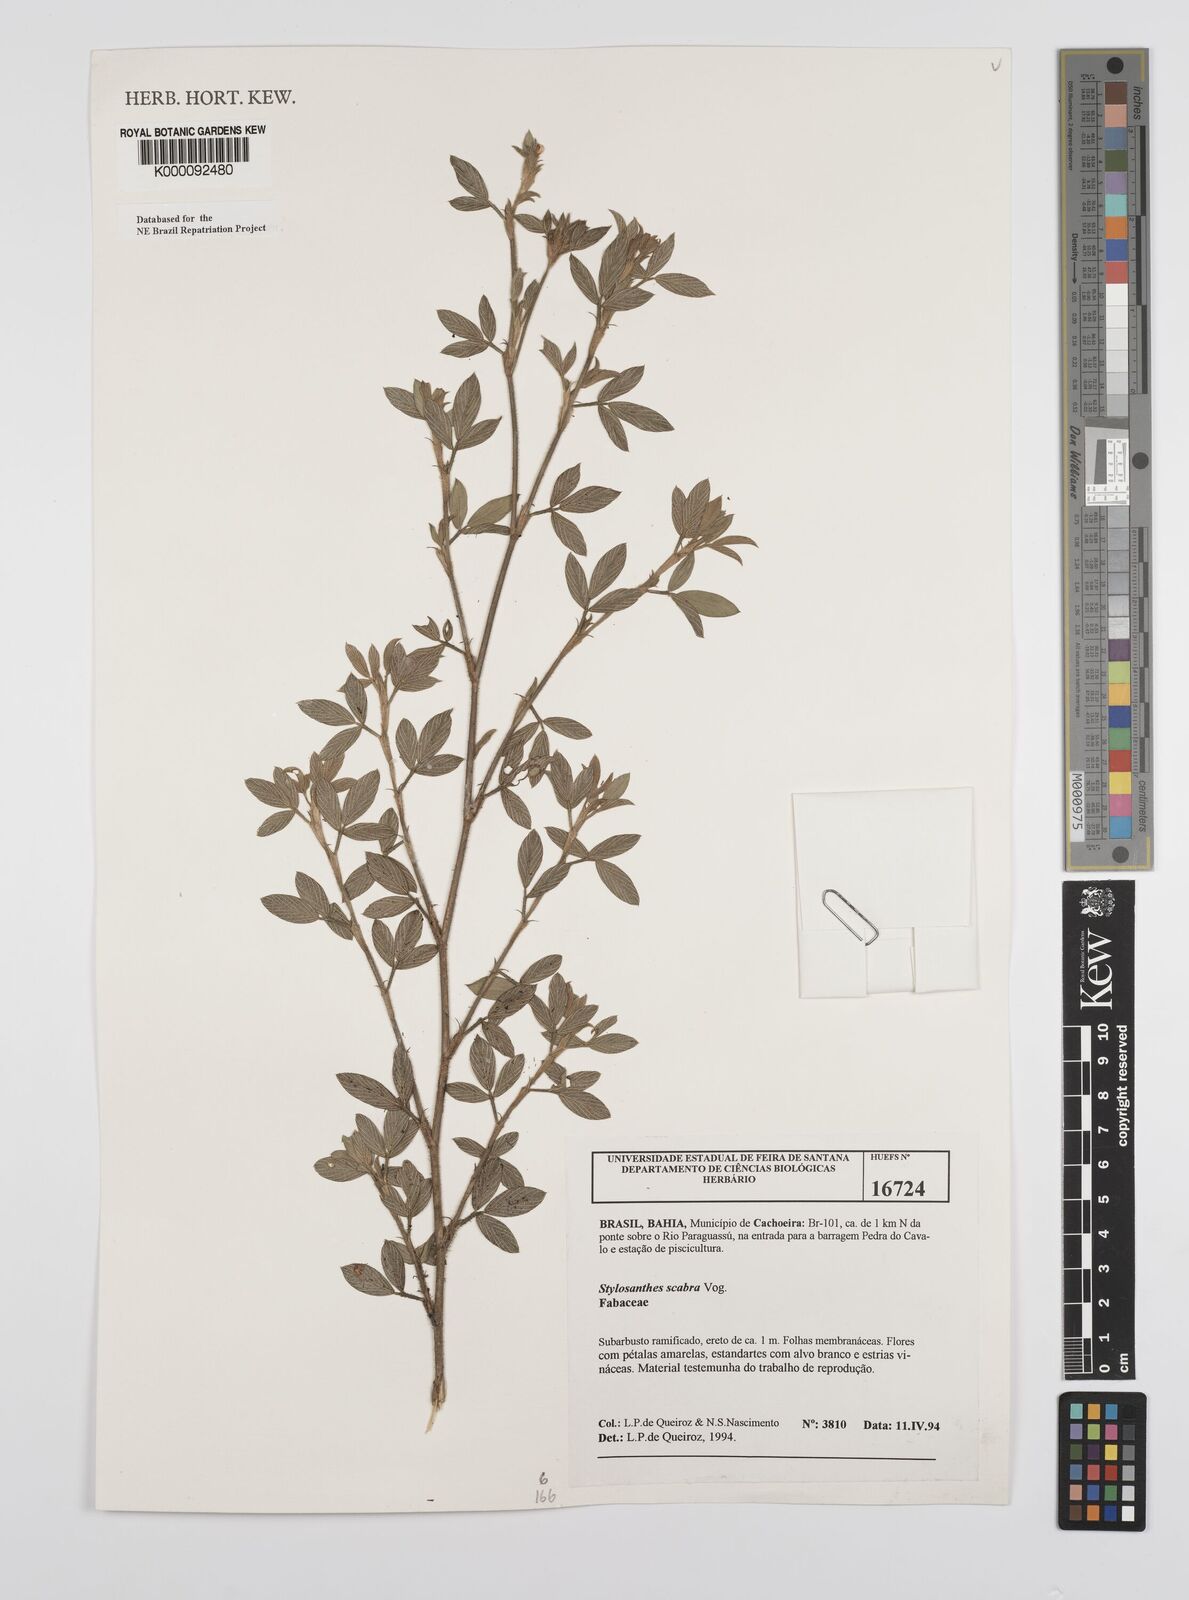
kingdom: Plantae
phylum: Tracheophyta
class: Magnoliopsida
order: Fabales
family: Fabaceae
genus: Stylosanthes
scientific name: Stylosanthes scabra
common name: Pencilflower
